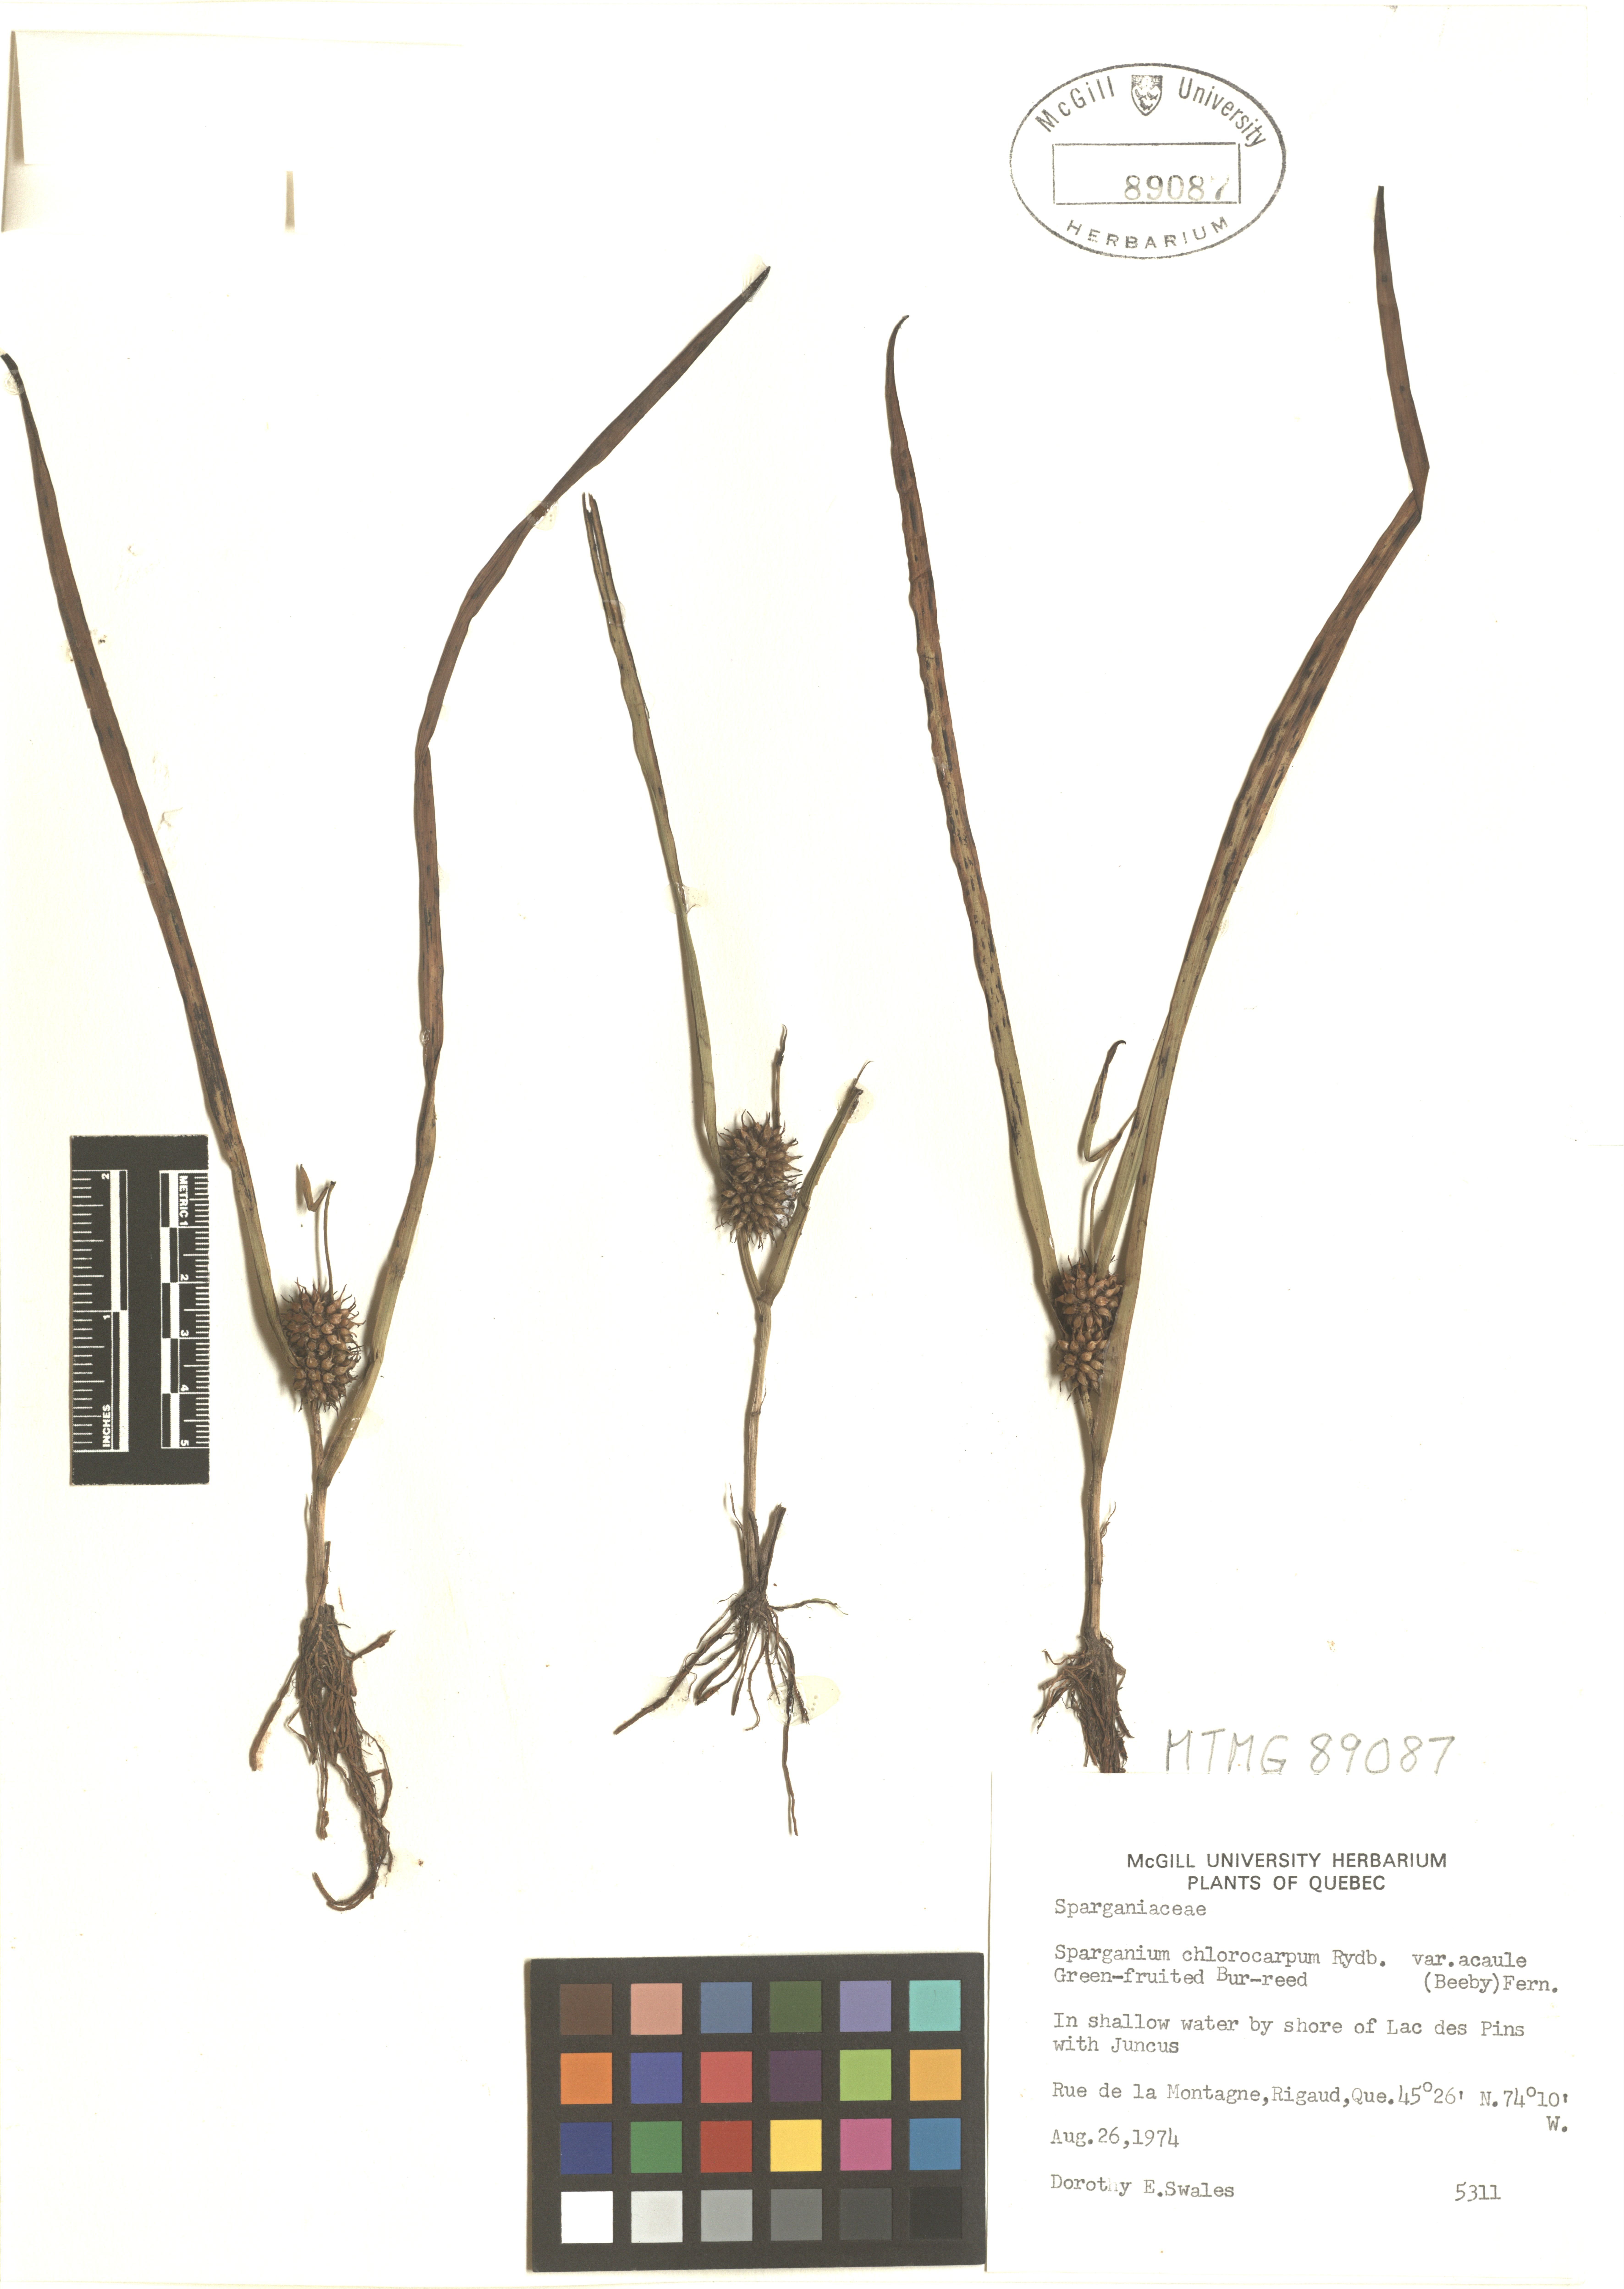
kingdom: Plantae
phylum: Tracheophyta
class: Liliopsida
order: Poales
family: Typhaceae
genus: Sparganium
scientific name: Sparganium emersum
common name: Unbranched bur-reed
